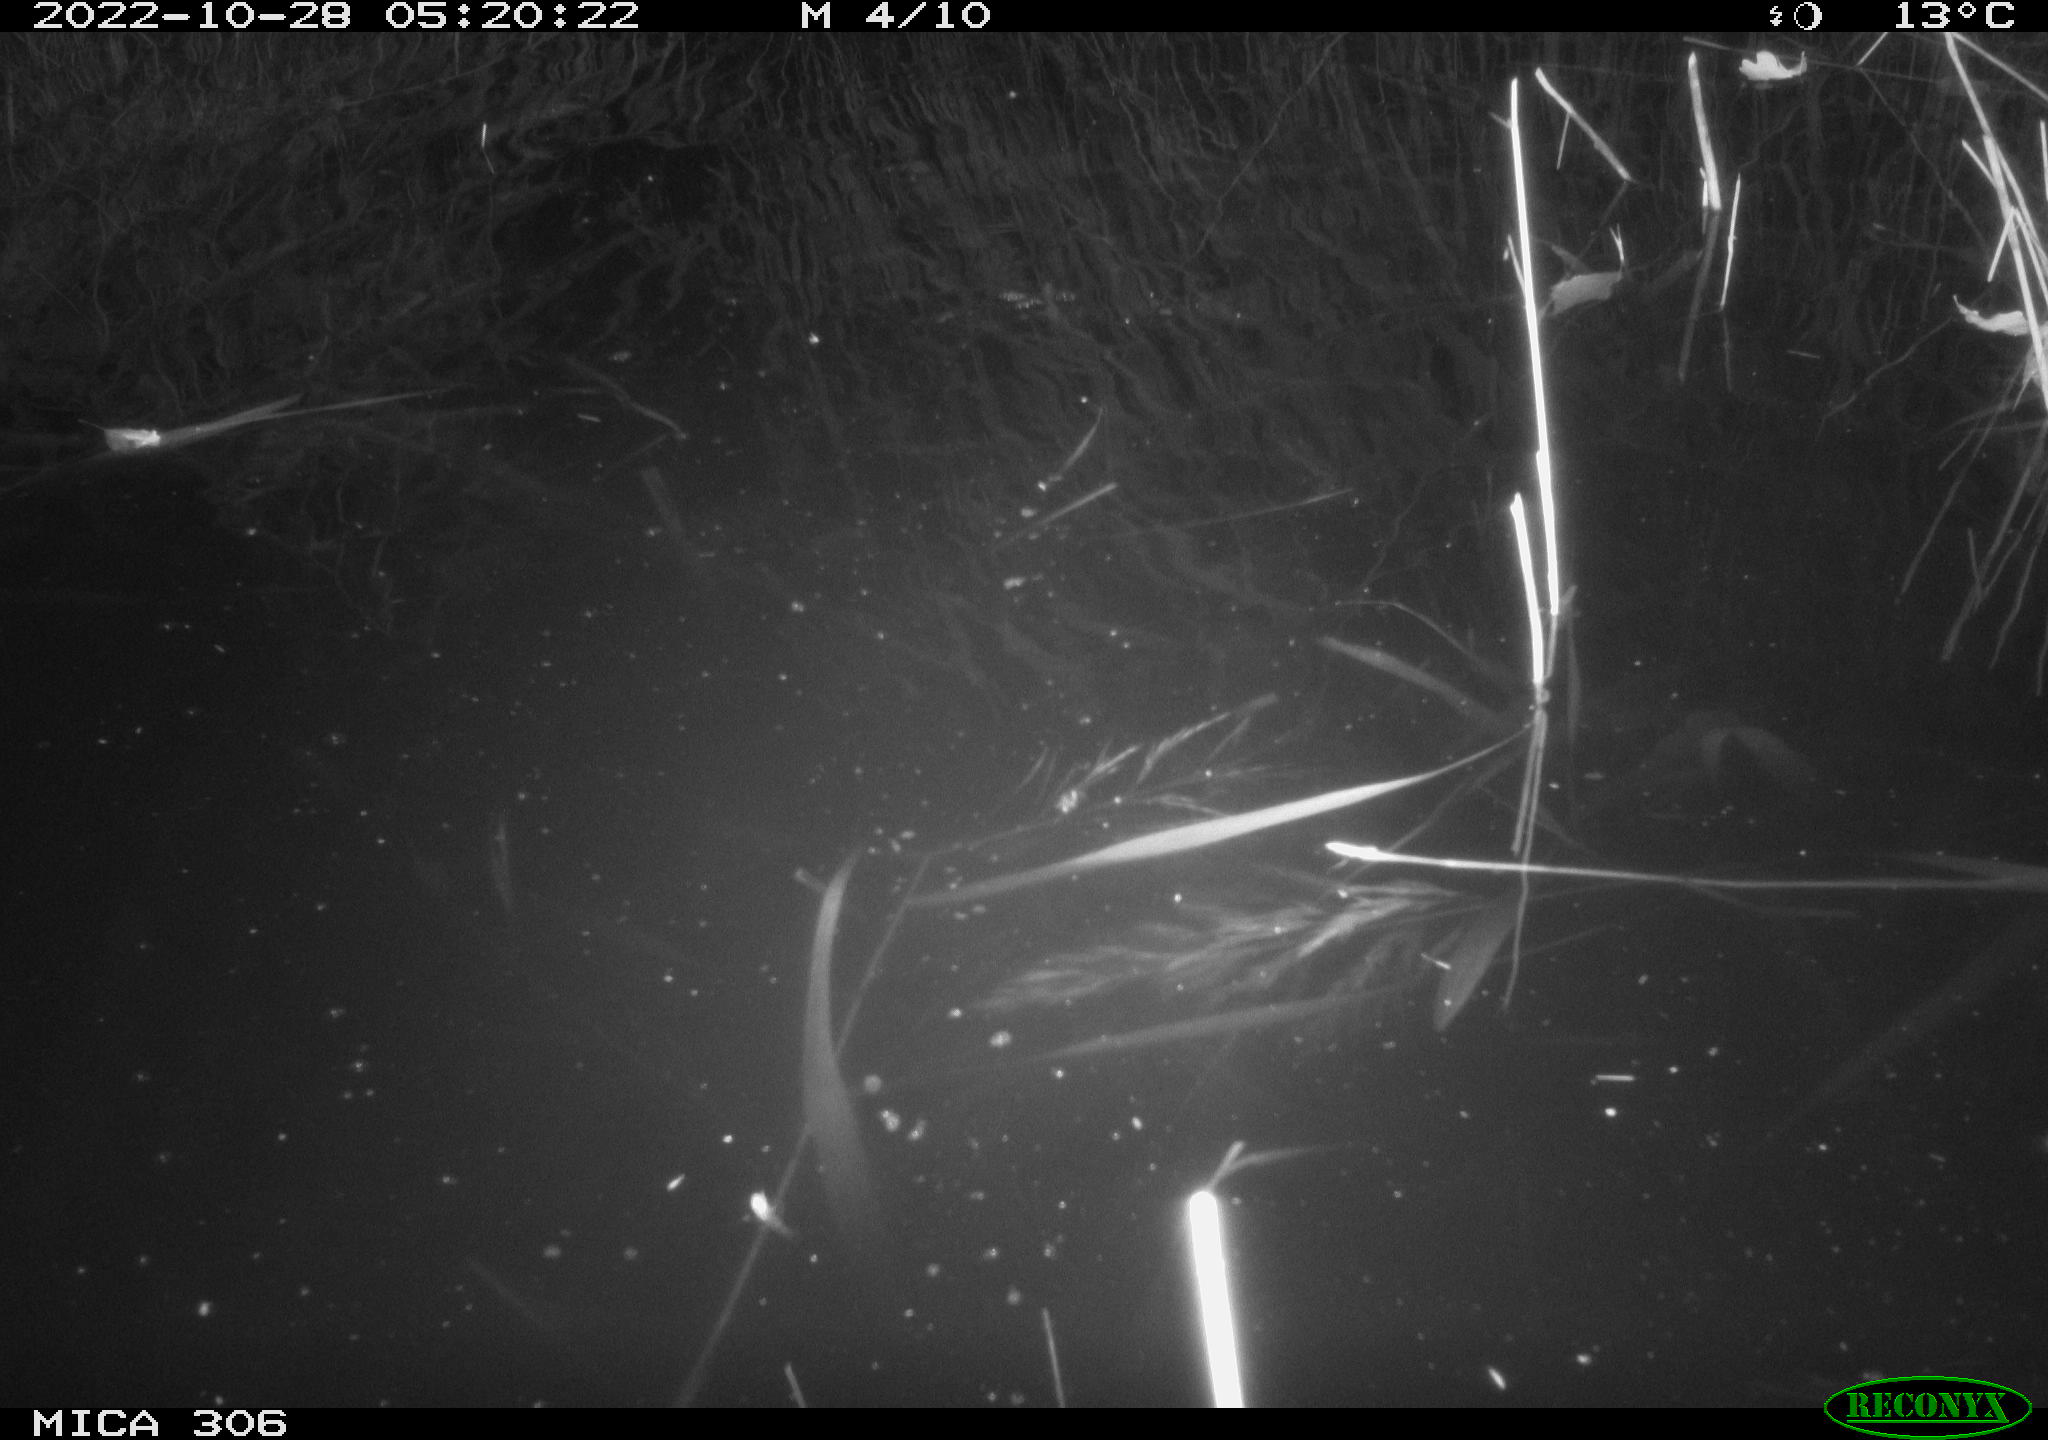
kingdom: Animalia
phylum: Chordata
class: Mammalia
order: Rodentia
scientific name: Rodentia
